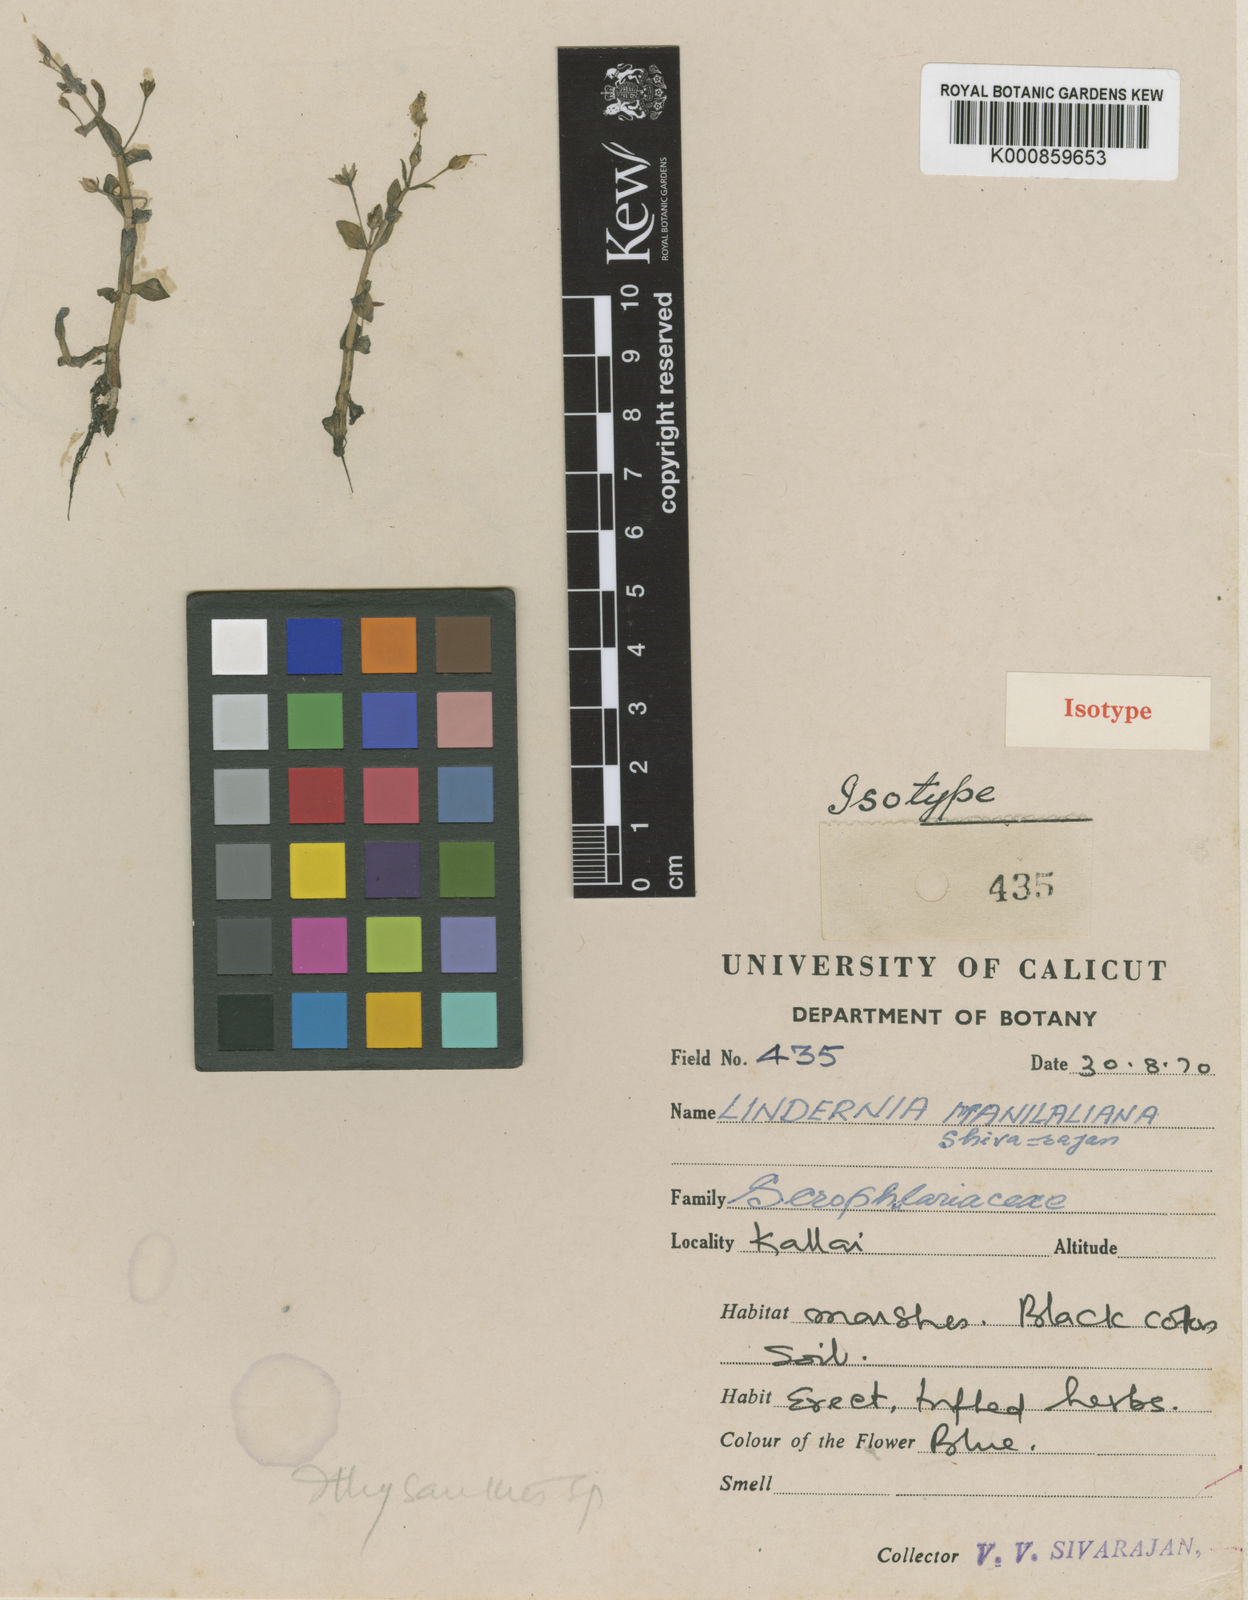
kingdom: Plantae
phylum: Tracheophyta
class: Magnoliopsida
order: Lamiales
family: Linderniaceae
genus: Lindernia
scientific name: Lindernia manilaliana
